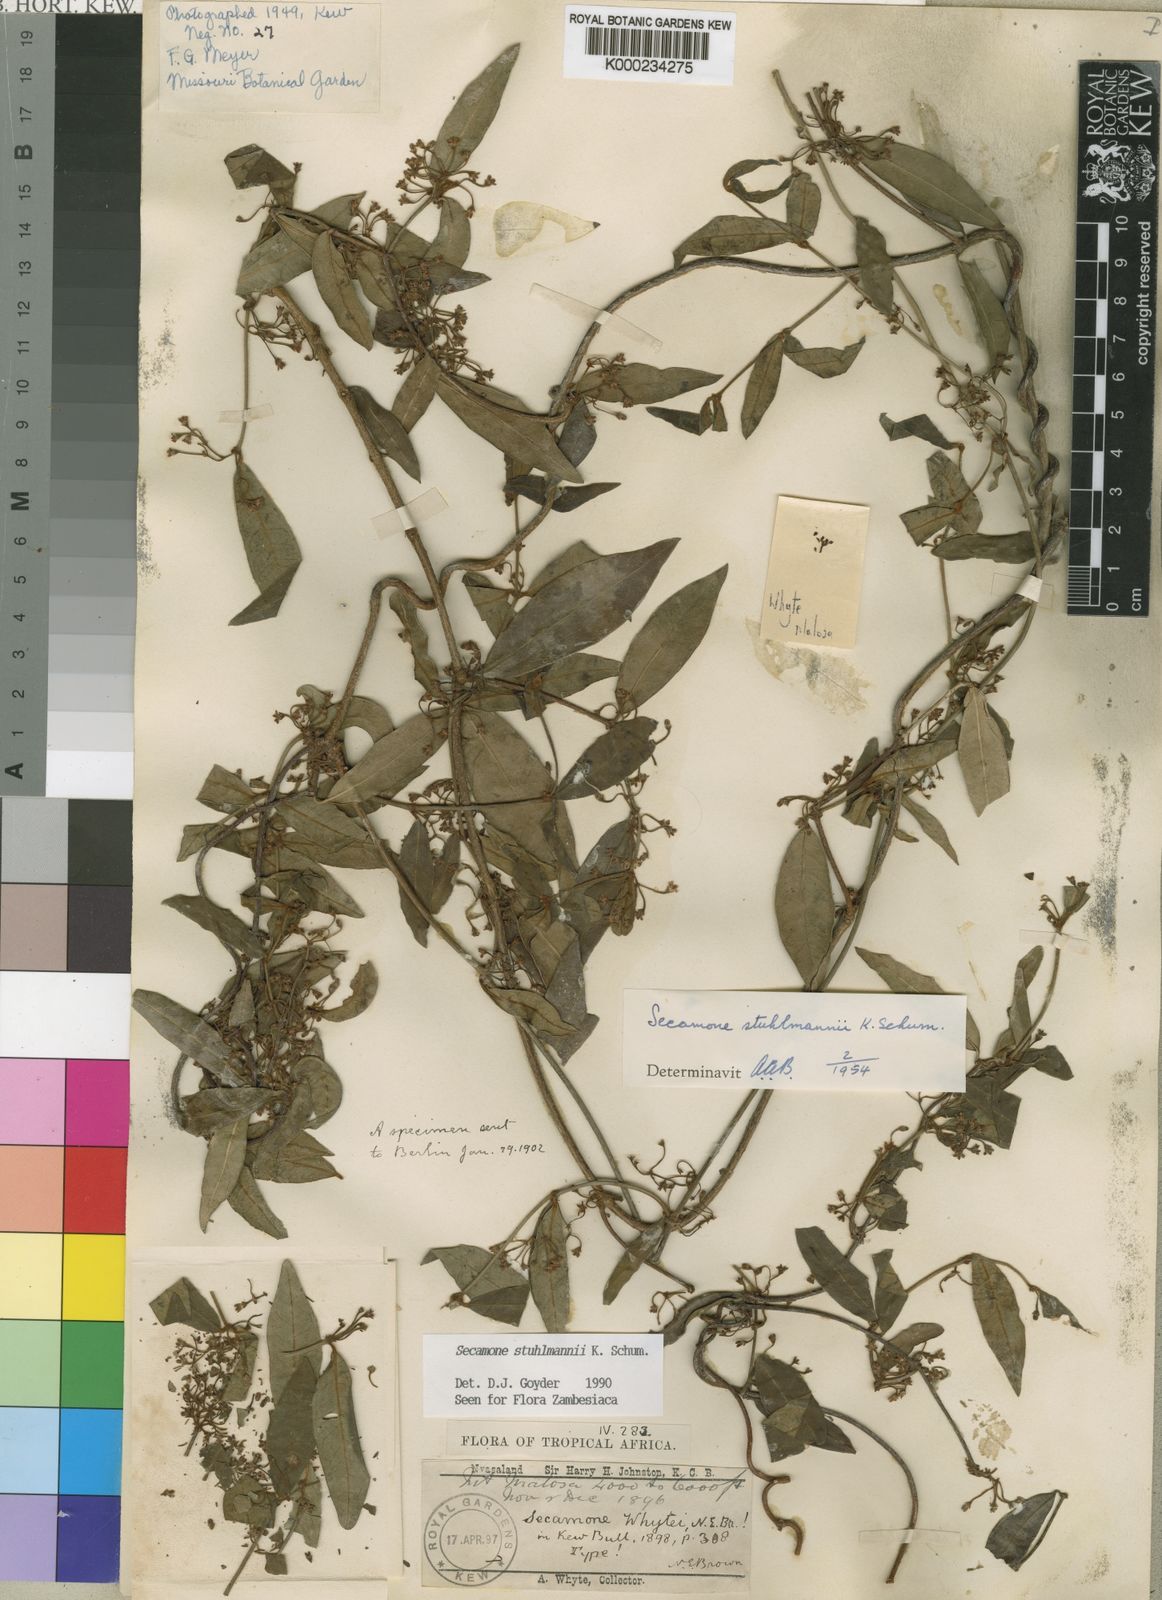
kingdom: Plantae
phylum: Tracheophyta
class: Magnoliopsida
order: Gentianales
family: Apocynaceae
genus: Secamone
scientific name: Secamone stuhlmannii
